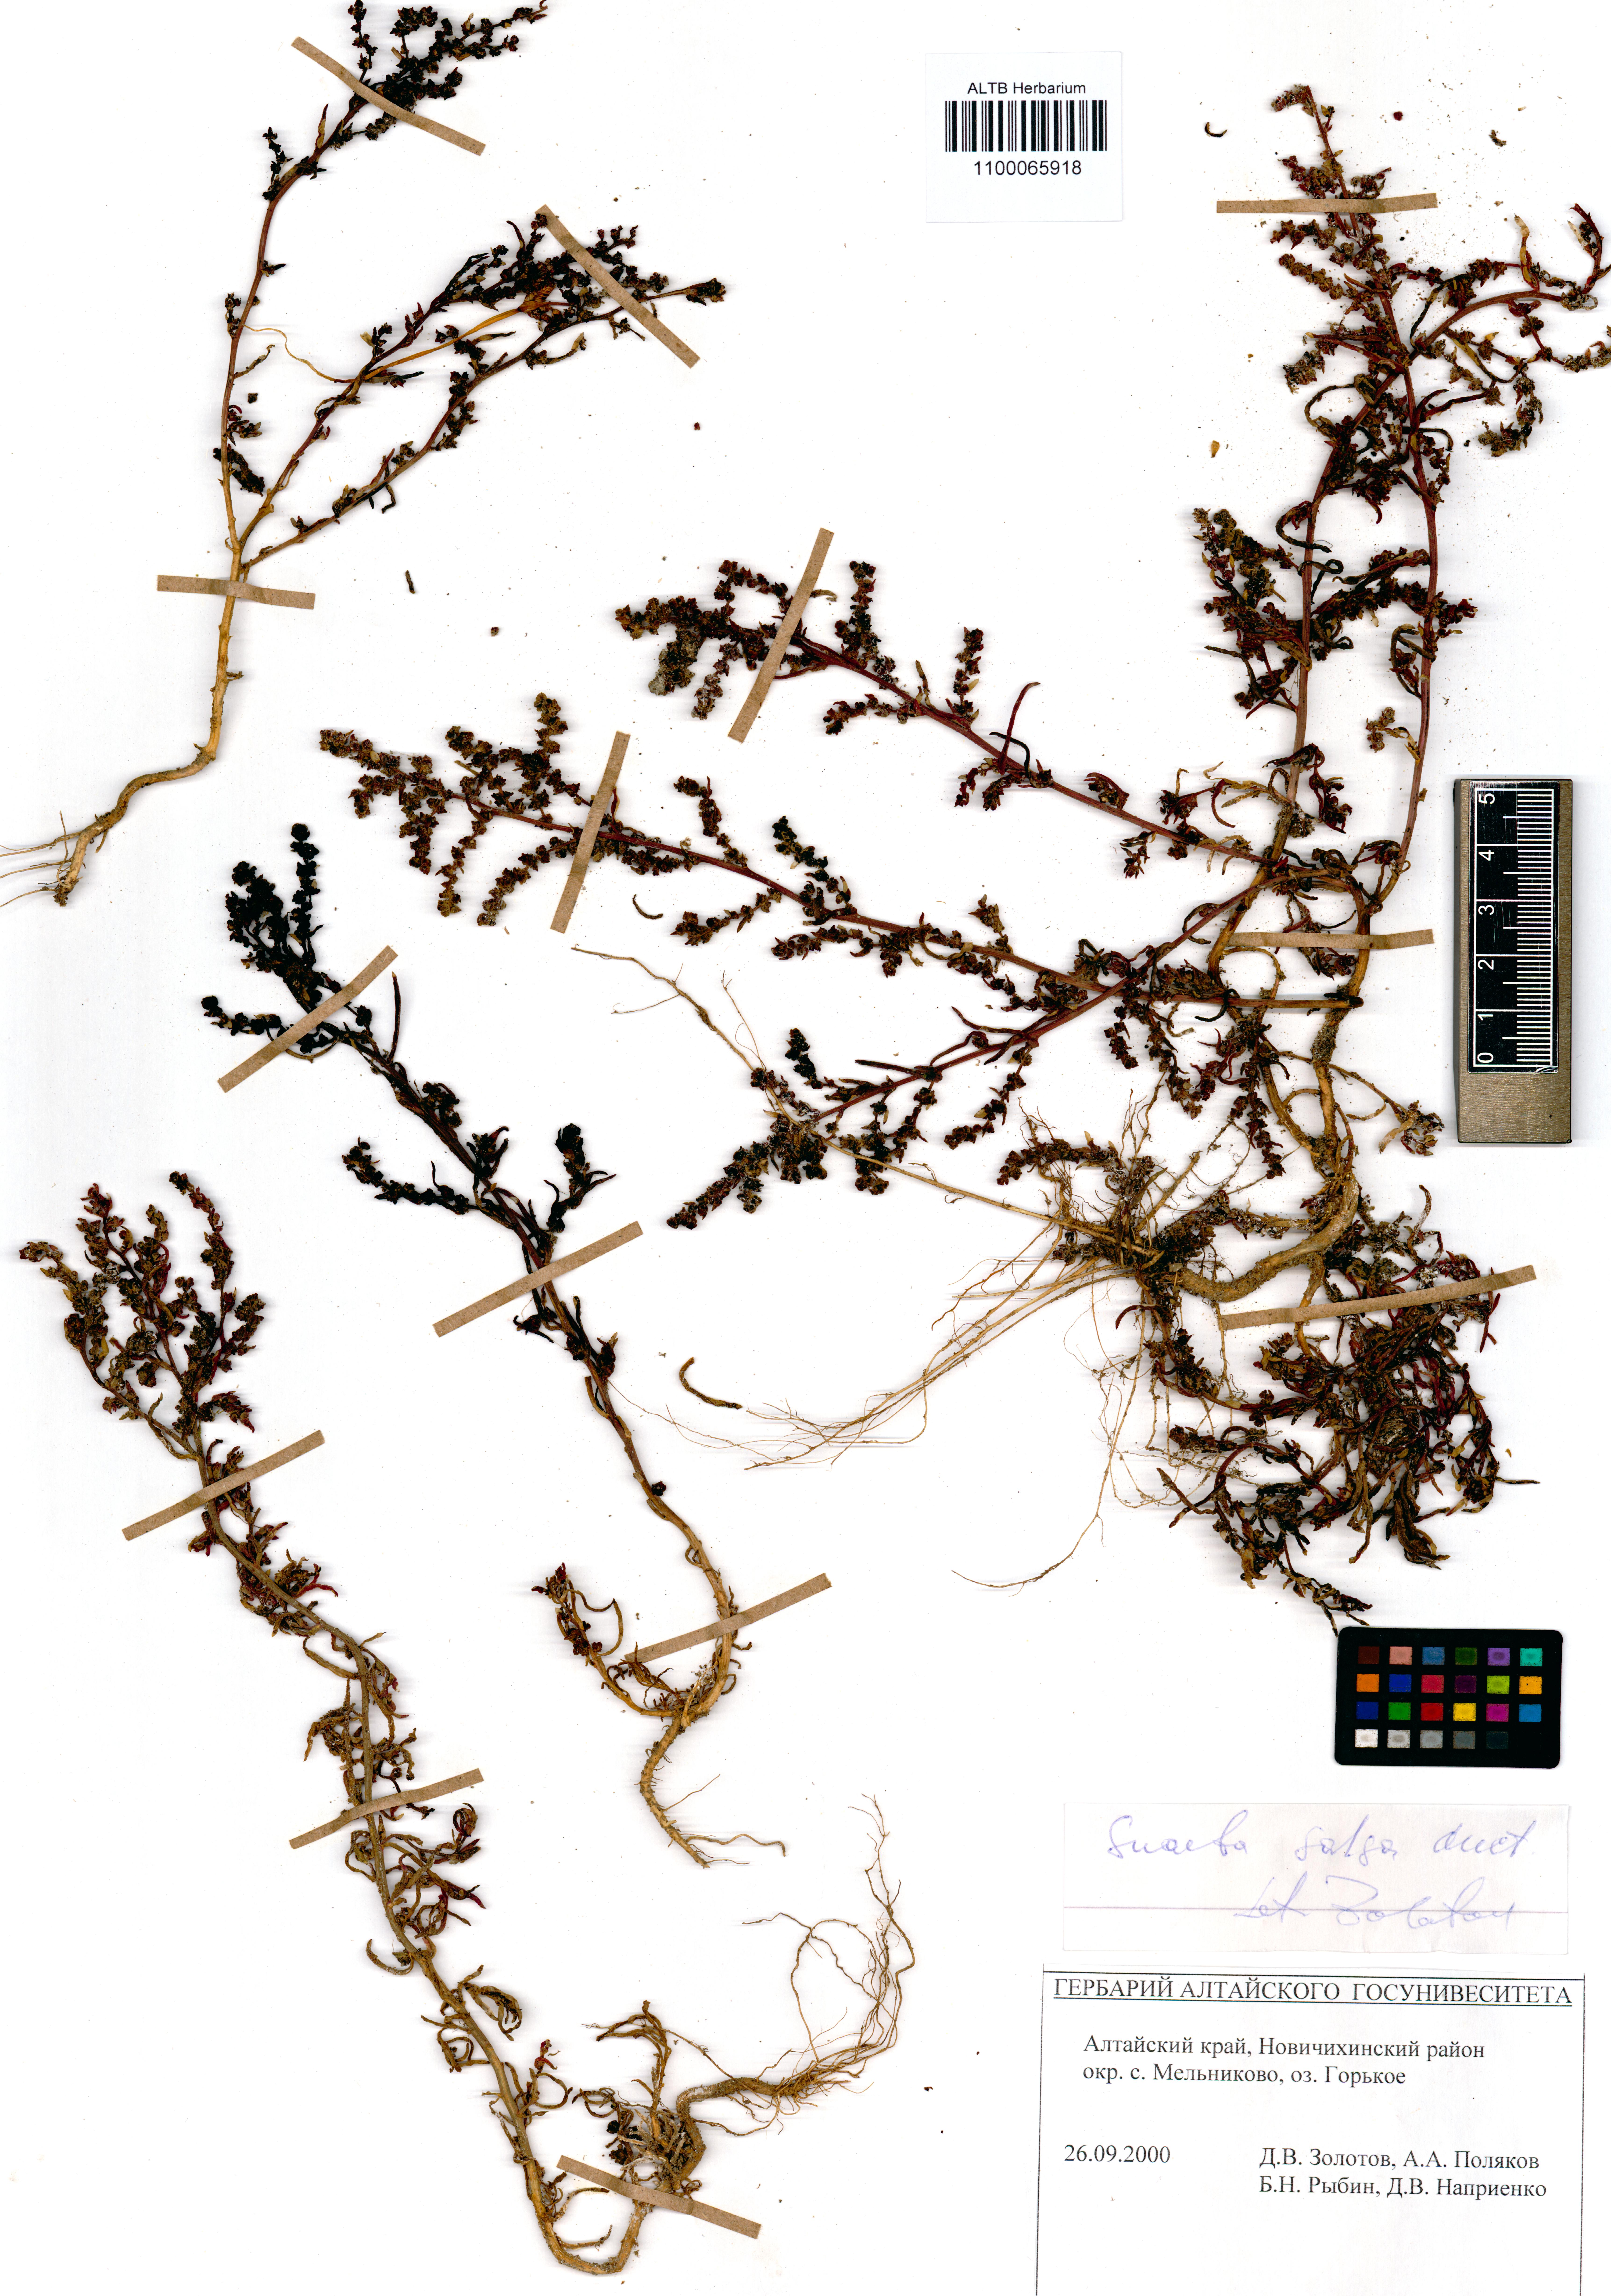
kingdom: Plantae
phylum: Tracheophyta
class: Magnoliopsida
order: Caryophyllales
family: Amaranthaceae
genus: Suaeda
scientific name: Suaeda salsa
